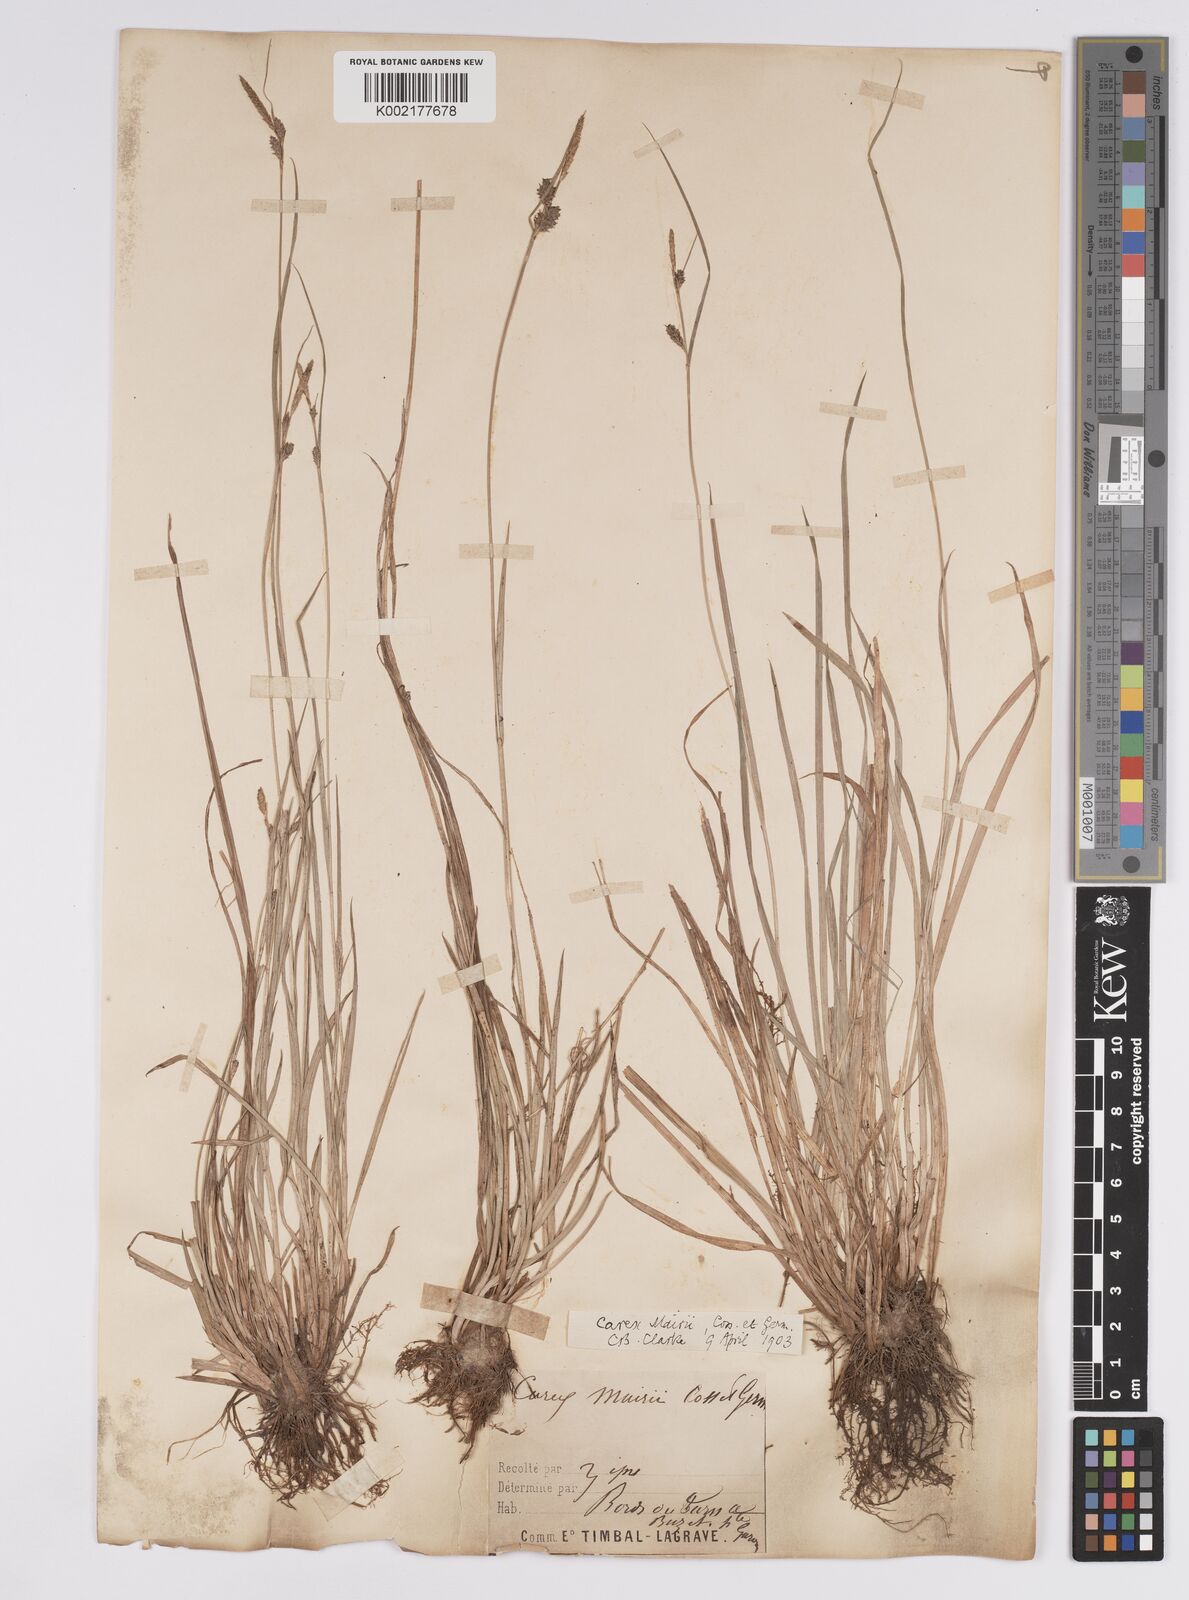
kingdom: Plantae
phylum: Tracheophyta
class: Liliopsida
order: Poales
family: Cyperaceae
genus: Carex
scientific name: Carex mairei
